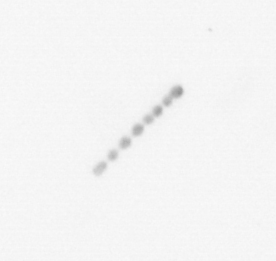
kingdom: Chromista
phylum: Ochrophyta
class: Bacillariophyceae
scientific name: Bacillariophyceae
